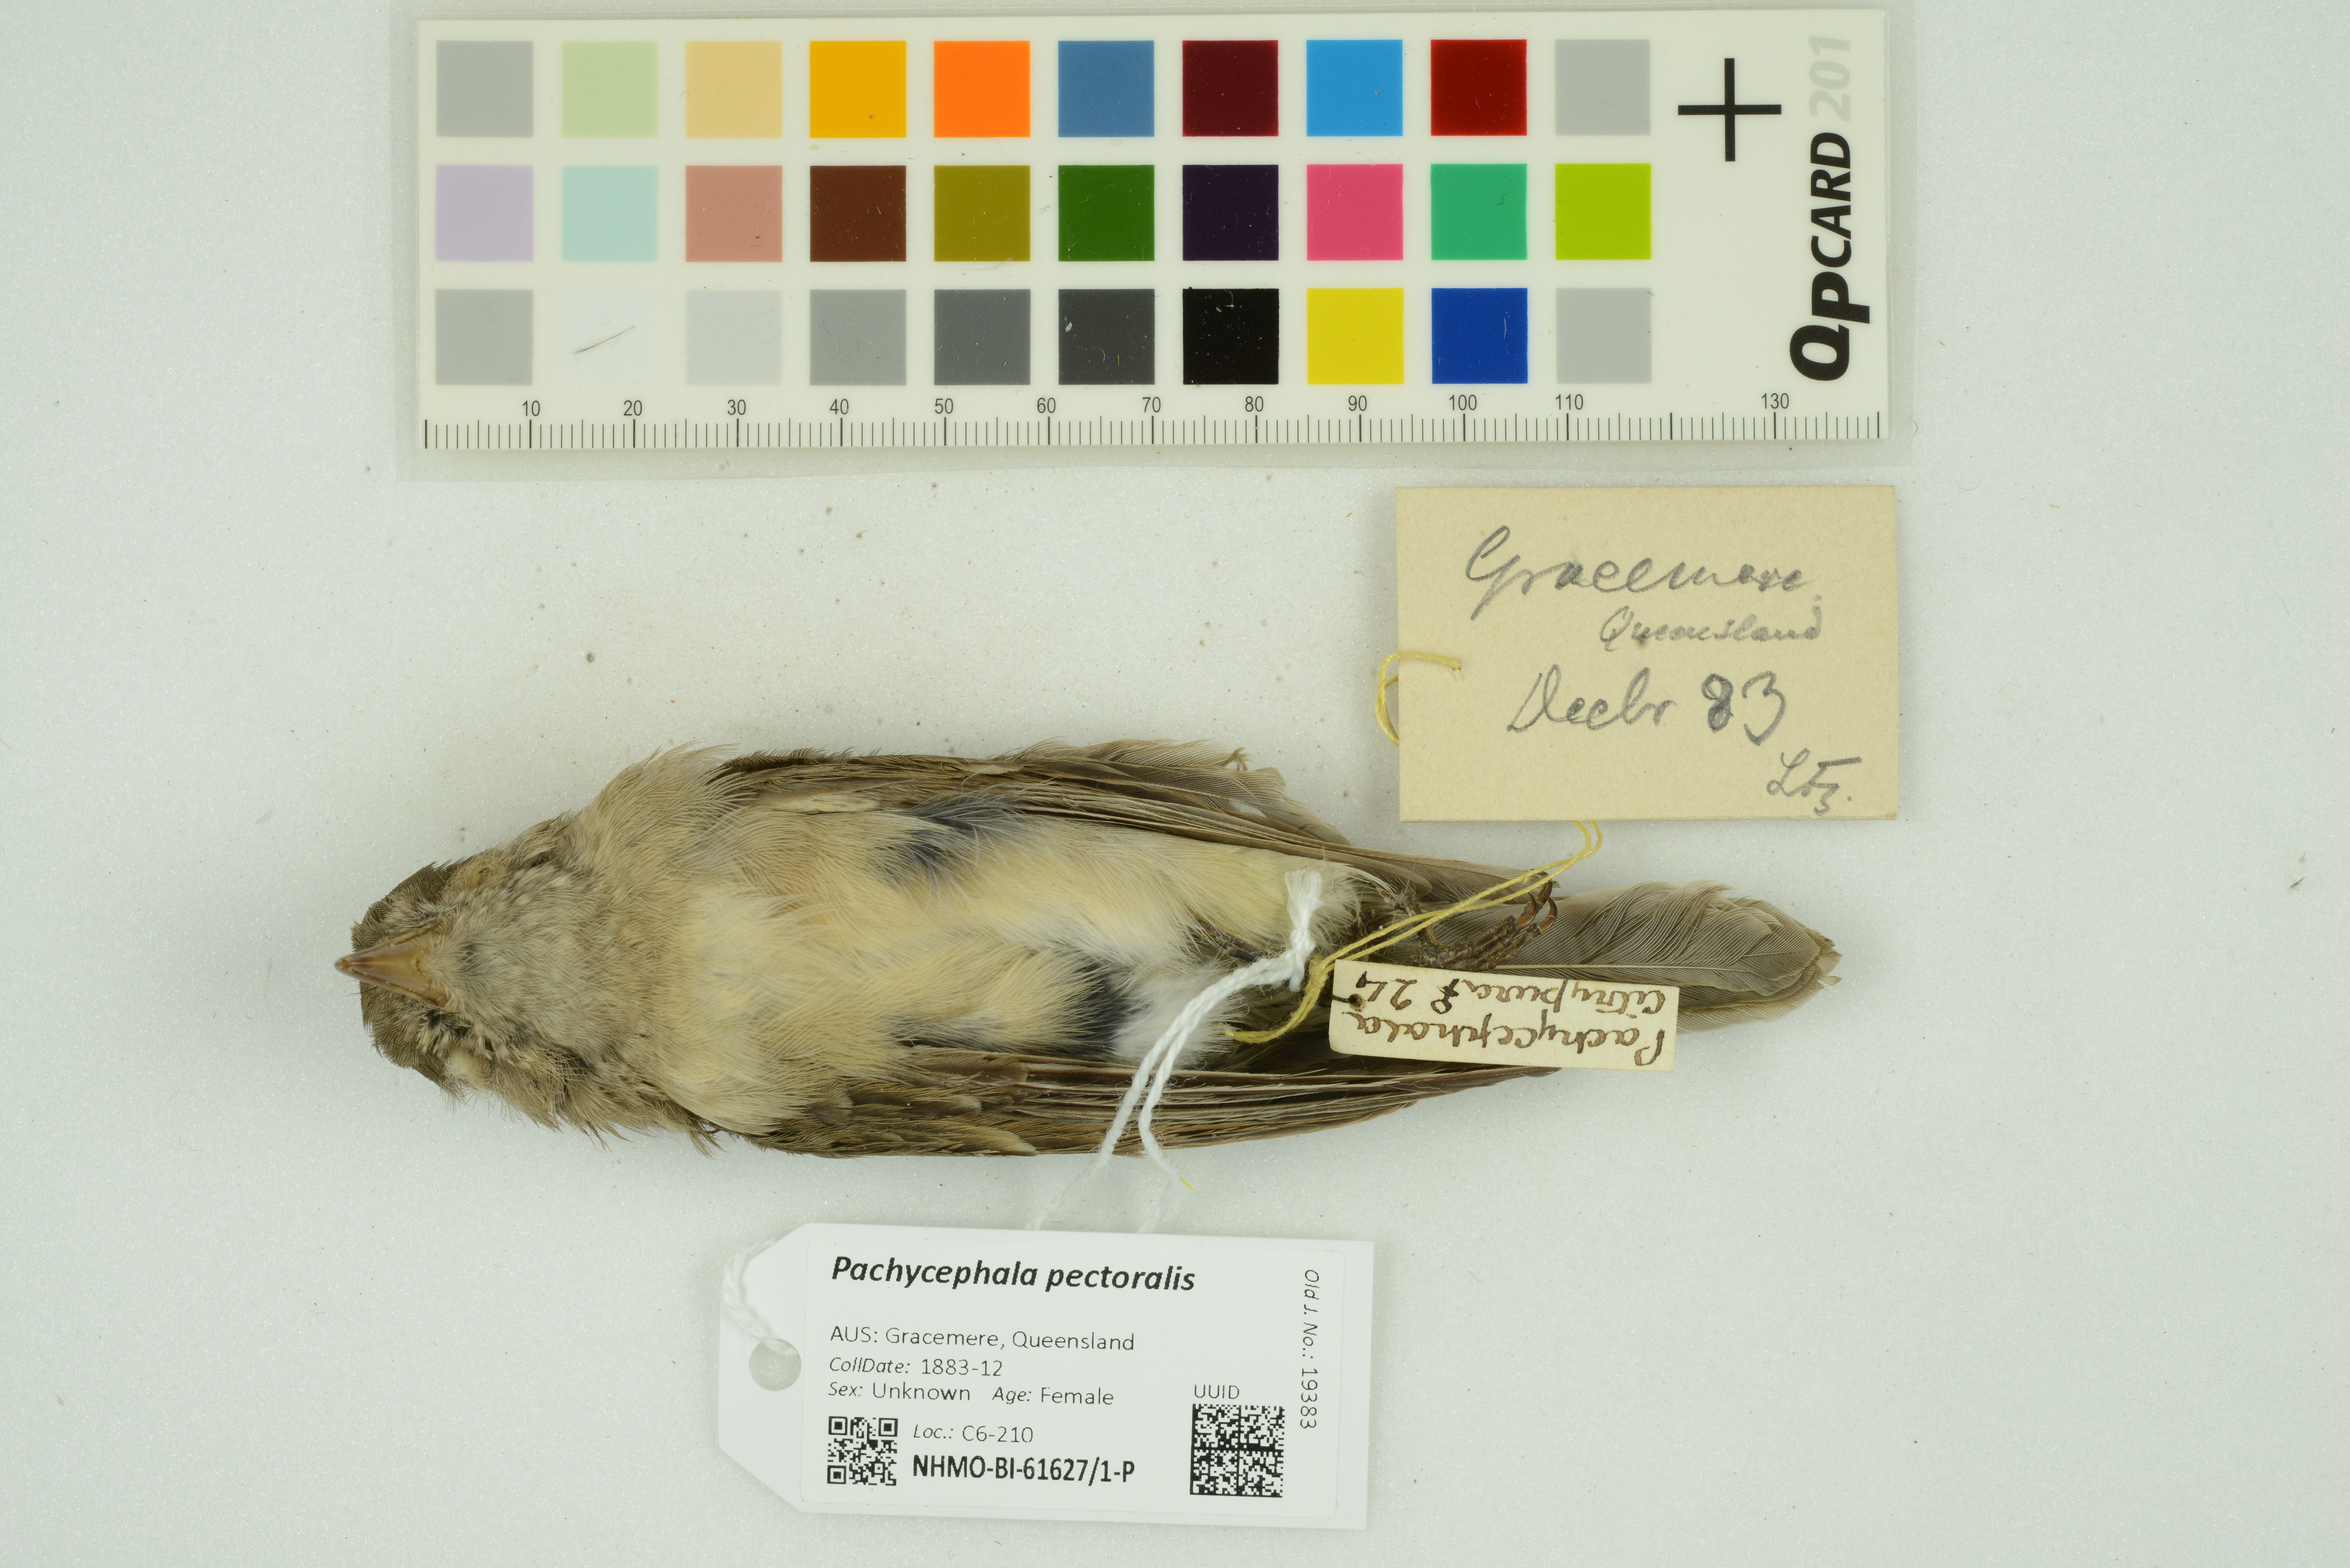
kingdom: Animalia
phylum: Chordata
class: Aves
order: Passeriformes
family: Pachycephalidae
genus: Pachycephala
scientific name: Pachycephala pectoralis
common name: Australian golden whistler
